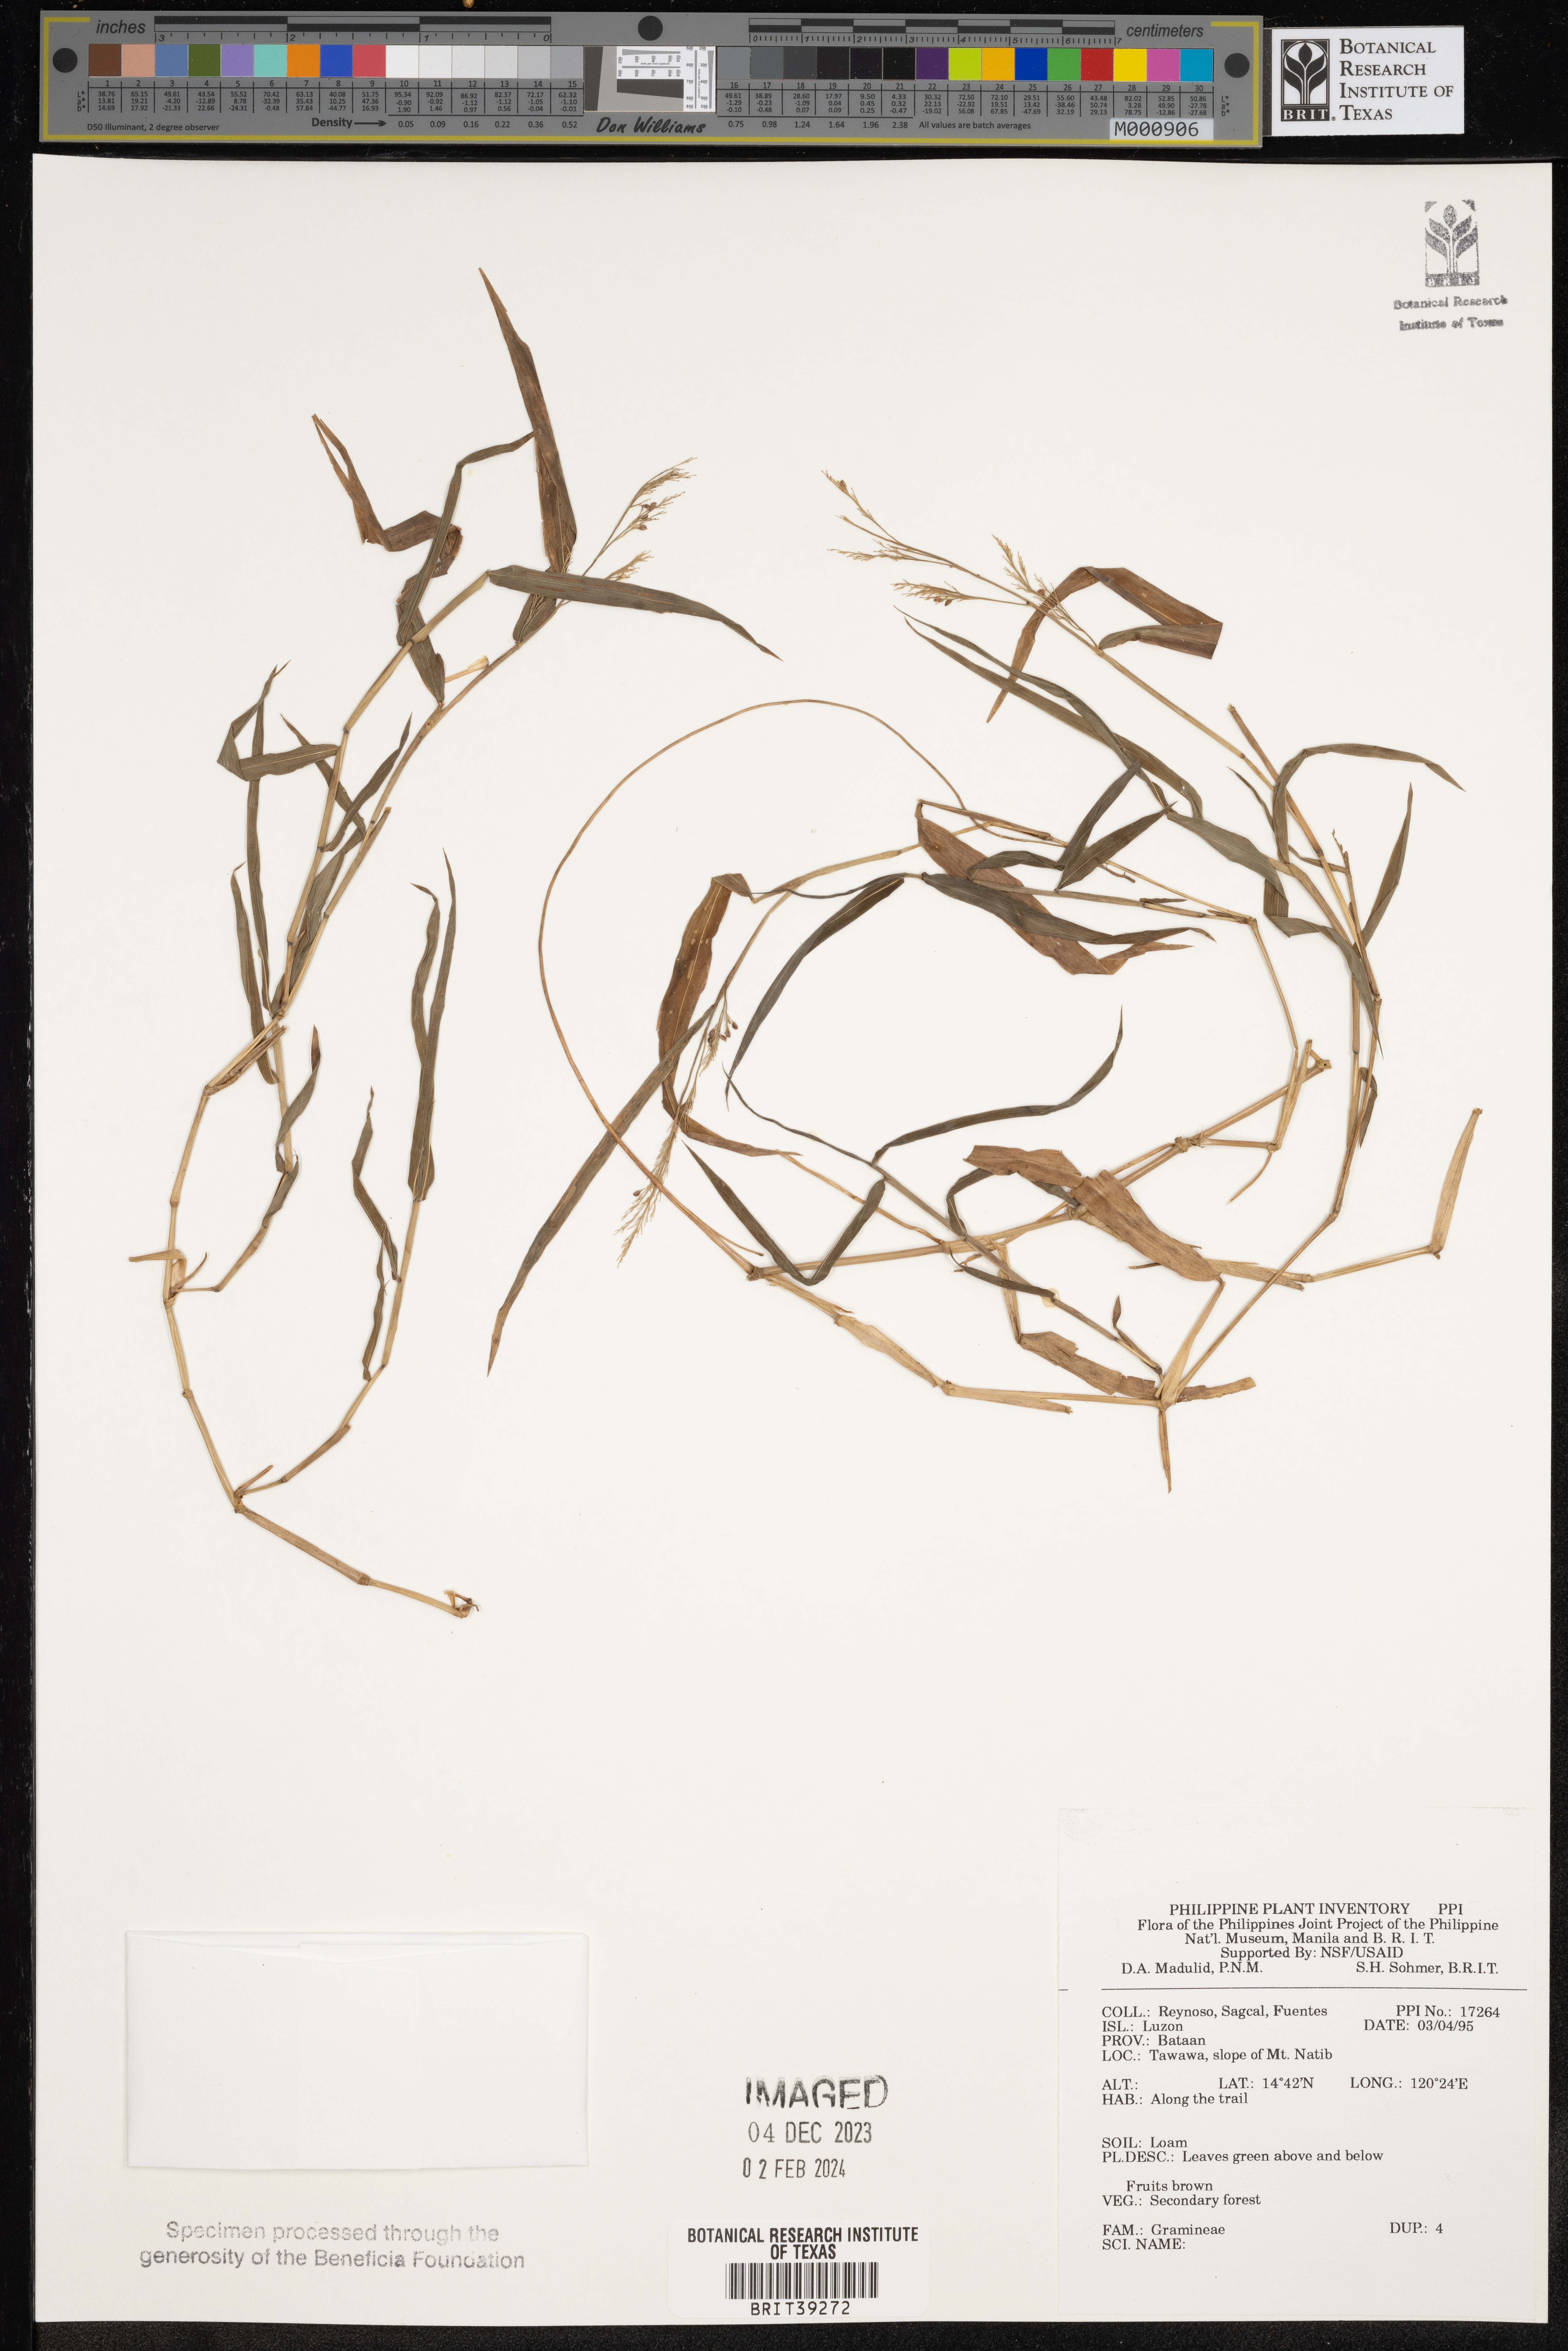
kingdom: Plantae
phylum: Tracheophyta
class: Liliopsida
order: Poales
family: Poaceae
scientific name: Poaceae
